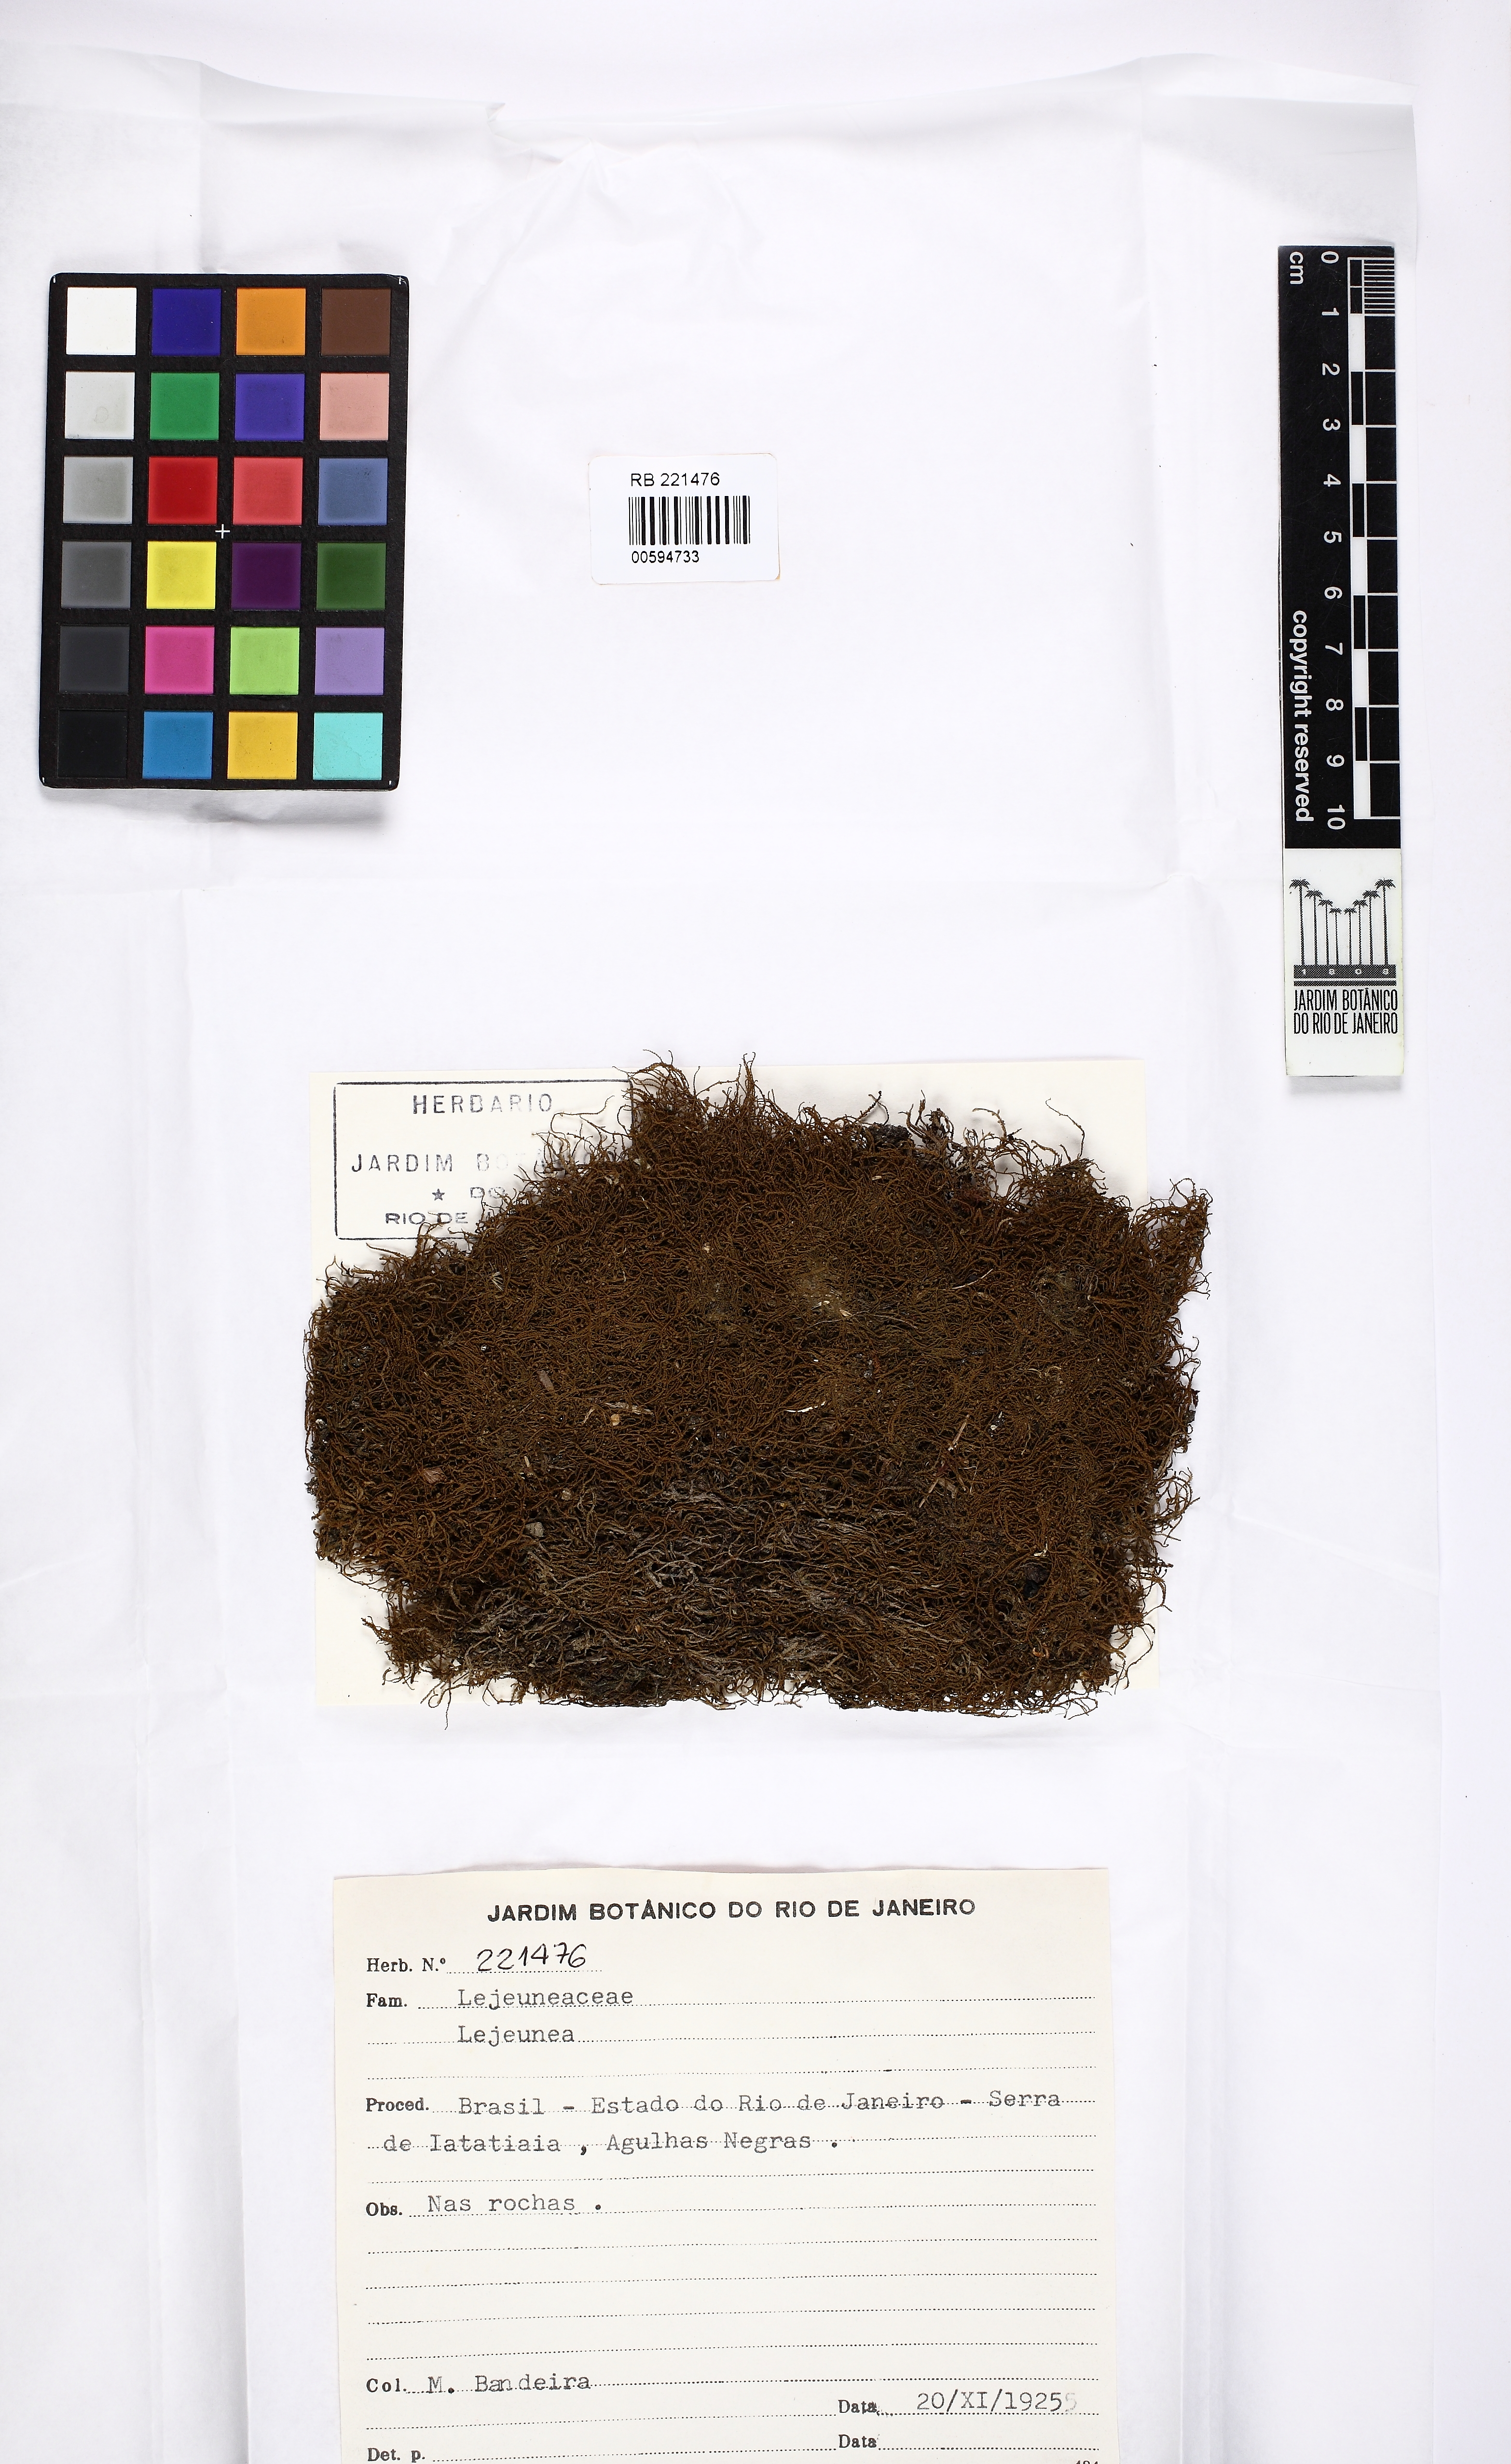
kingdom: Plantae
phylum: Marchantiophyta
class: Jungermanniopsida
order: Porellales
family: Lejeuneaceae
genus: Lejeunea
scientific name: Lejeunea
